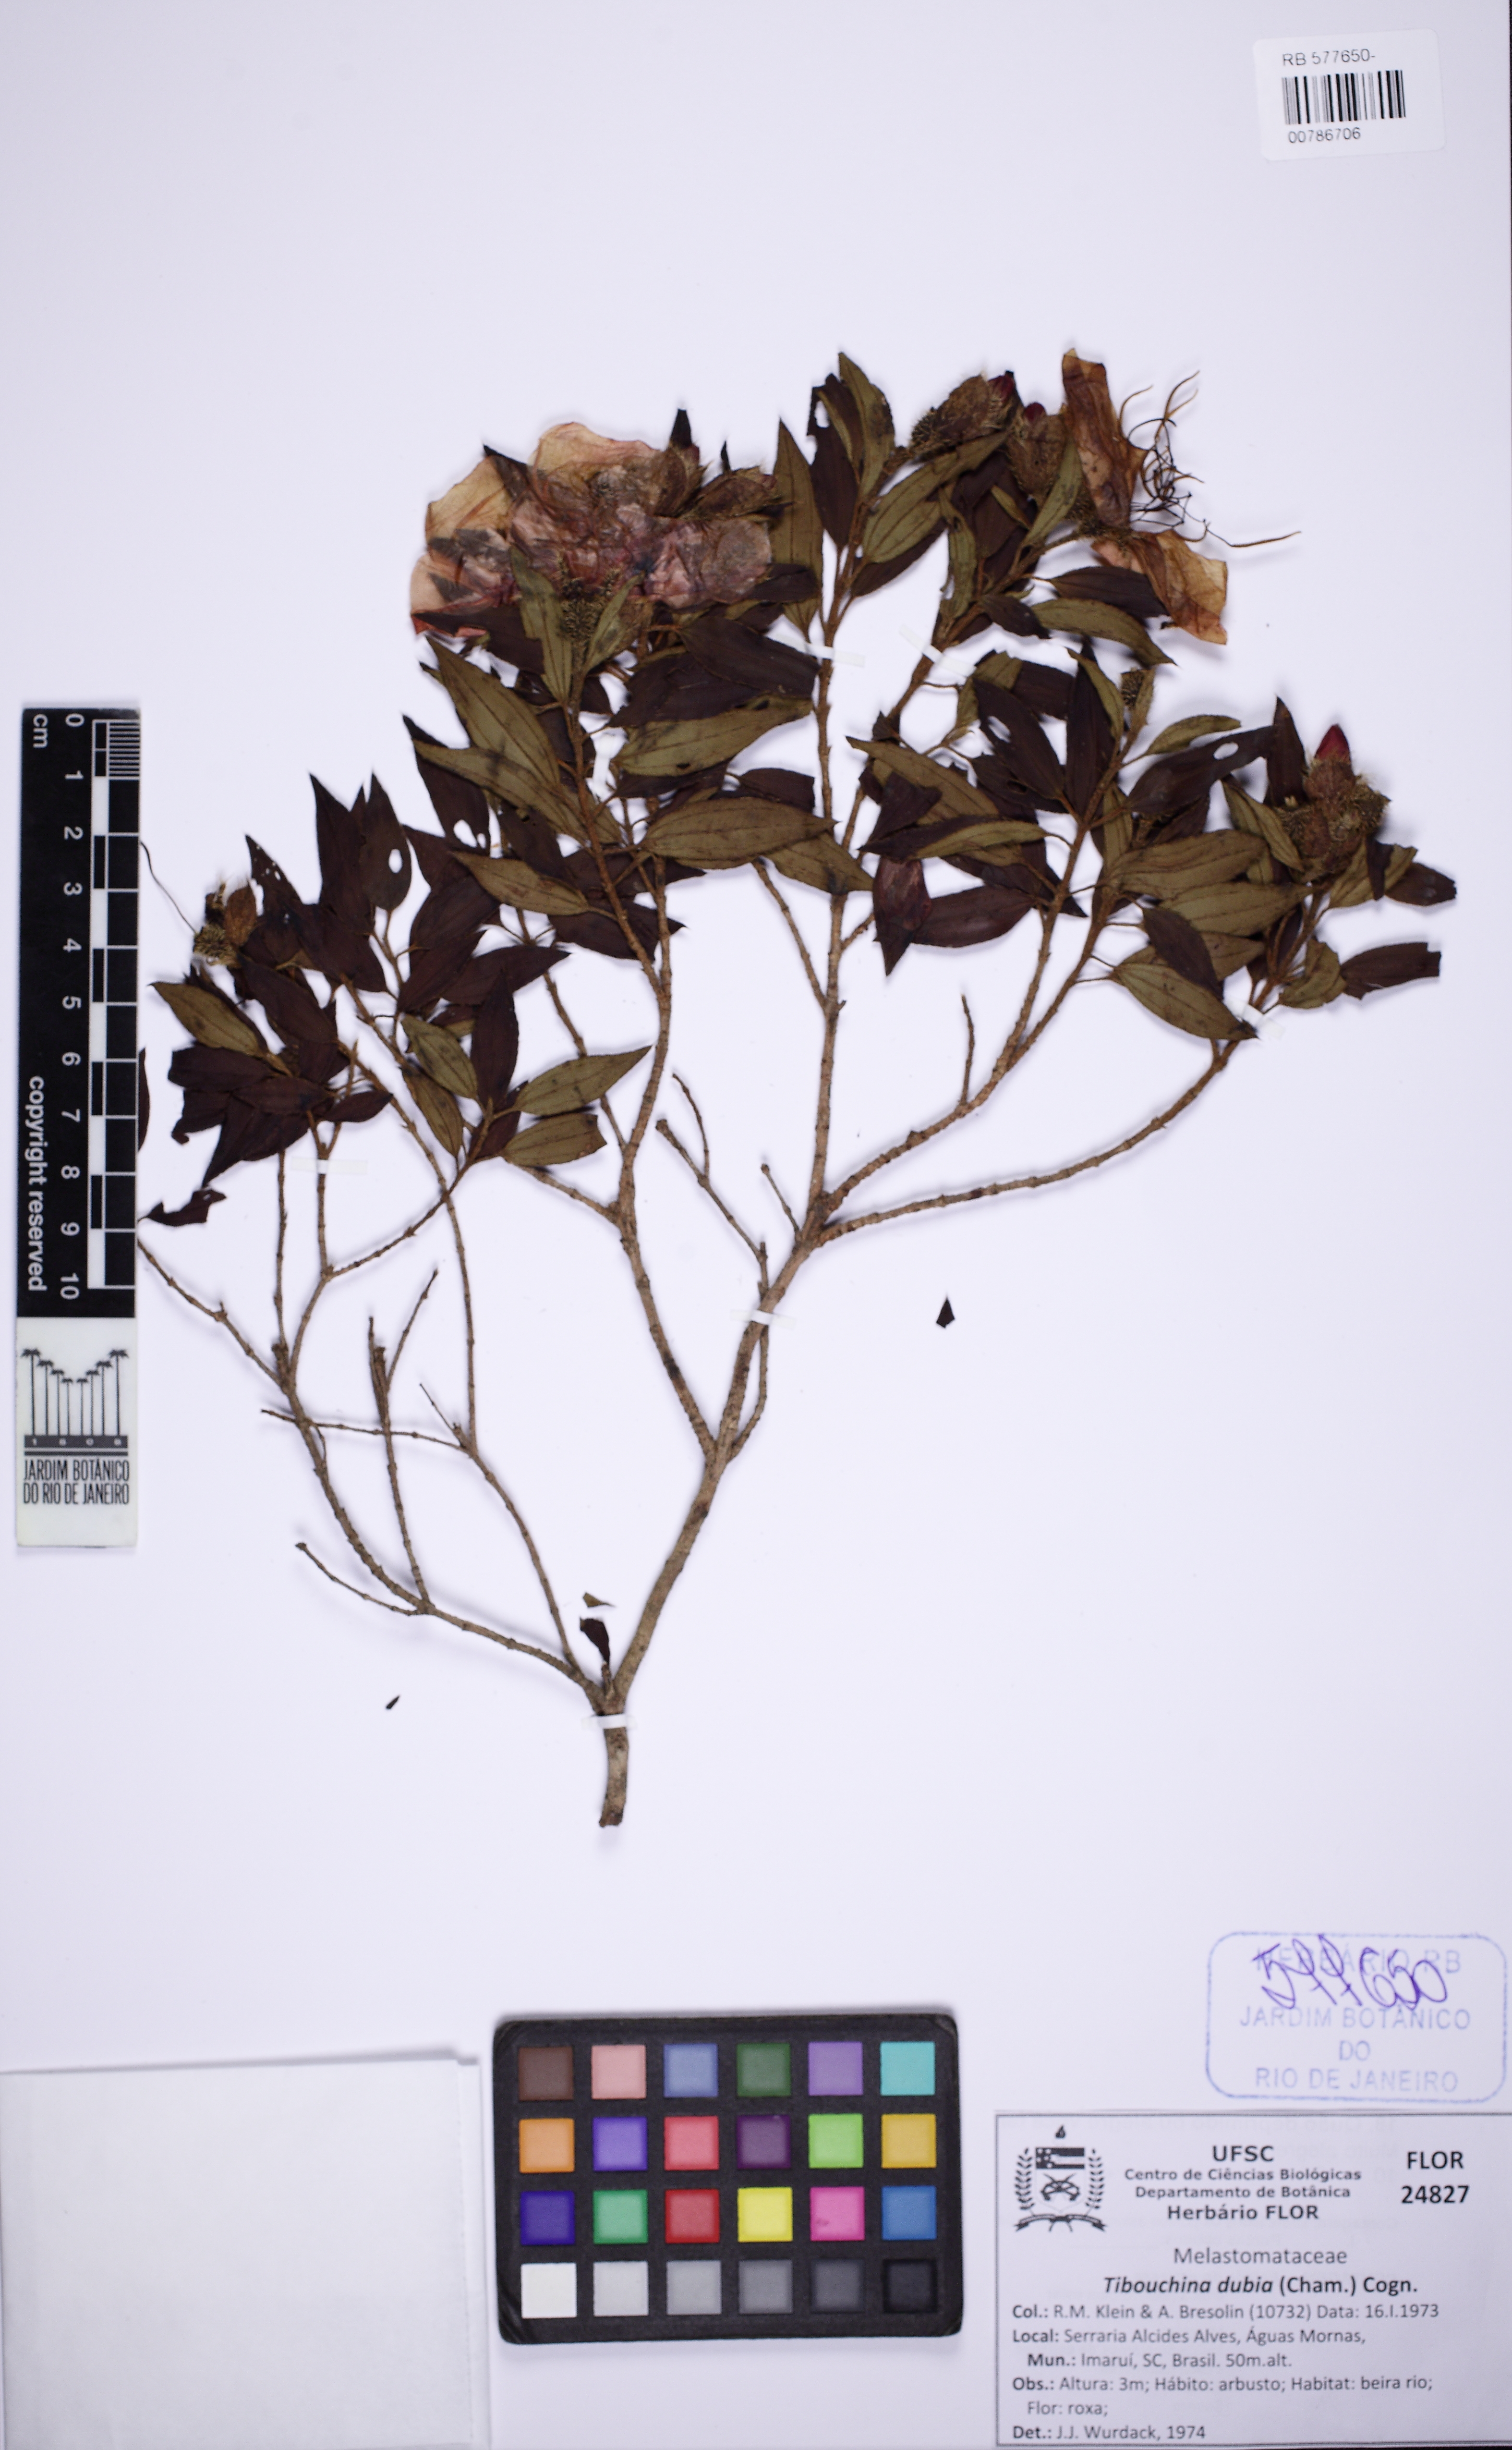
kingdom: Plantae
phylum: Tracheophyta
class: Magnoliopsida
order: Myrtales
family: Melastomataceae
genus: Pleroma
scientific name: Pleroma dubium
